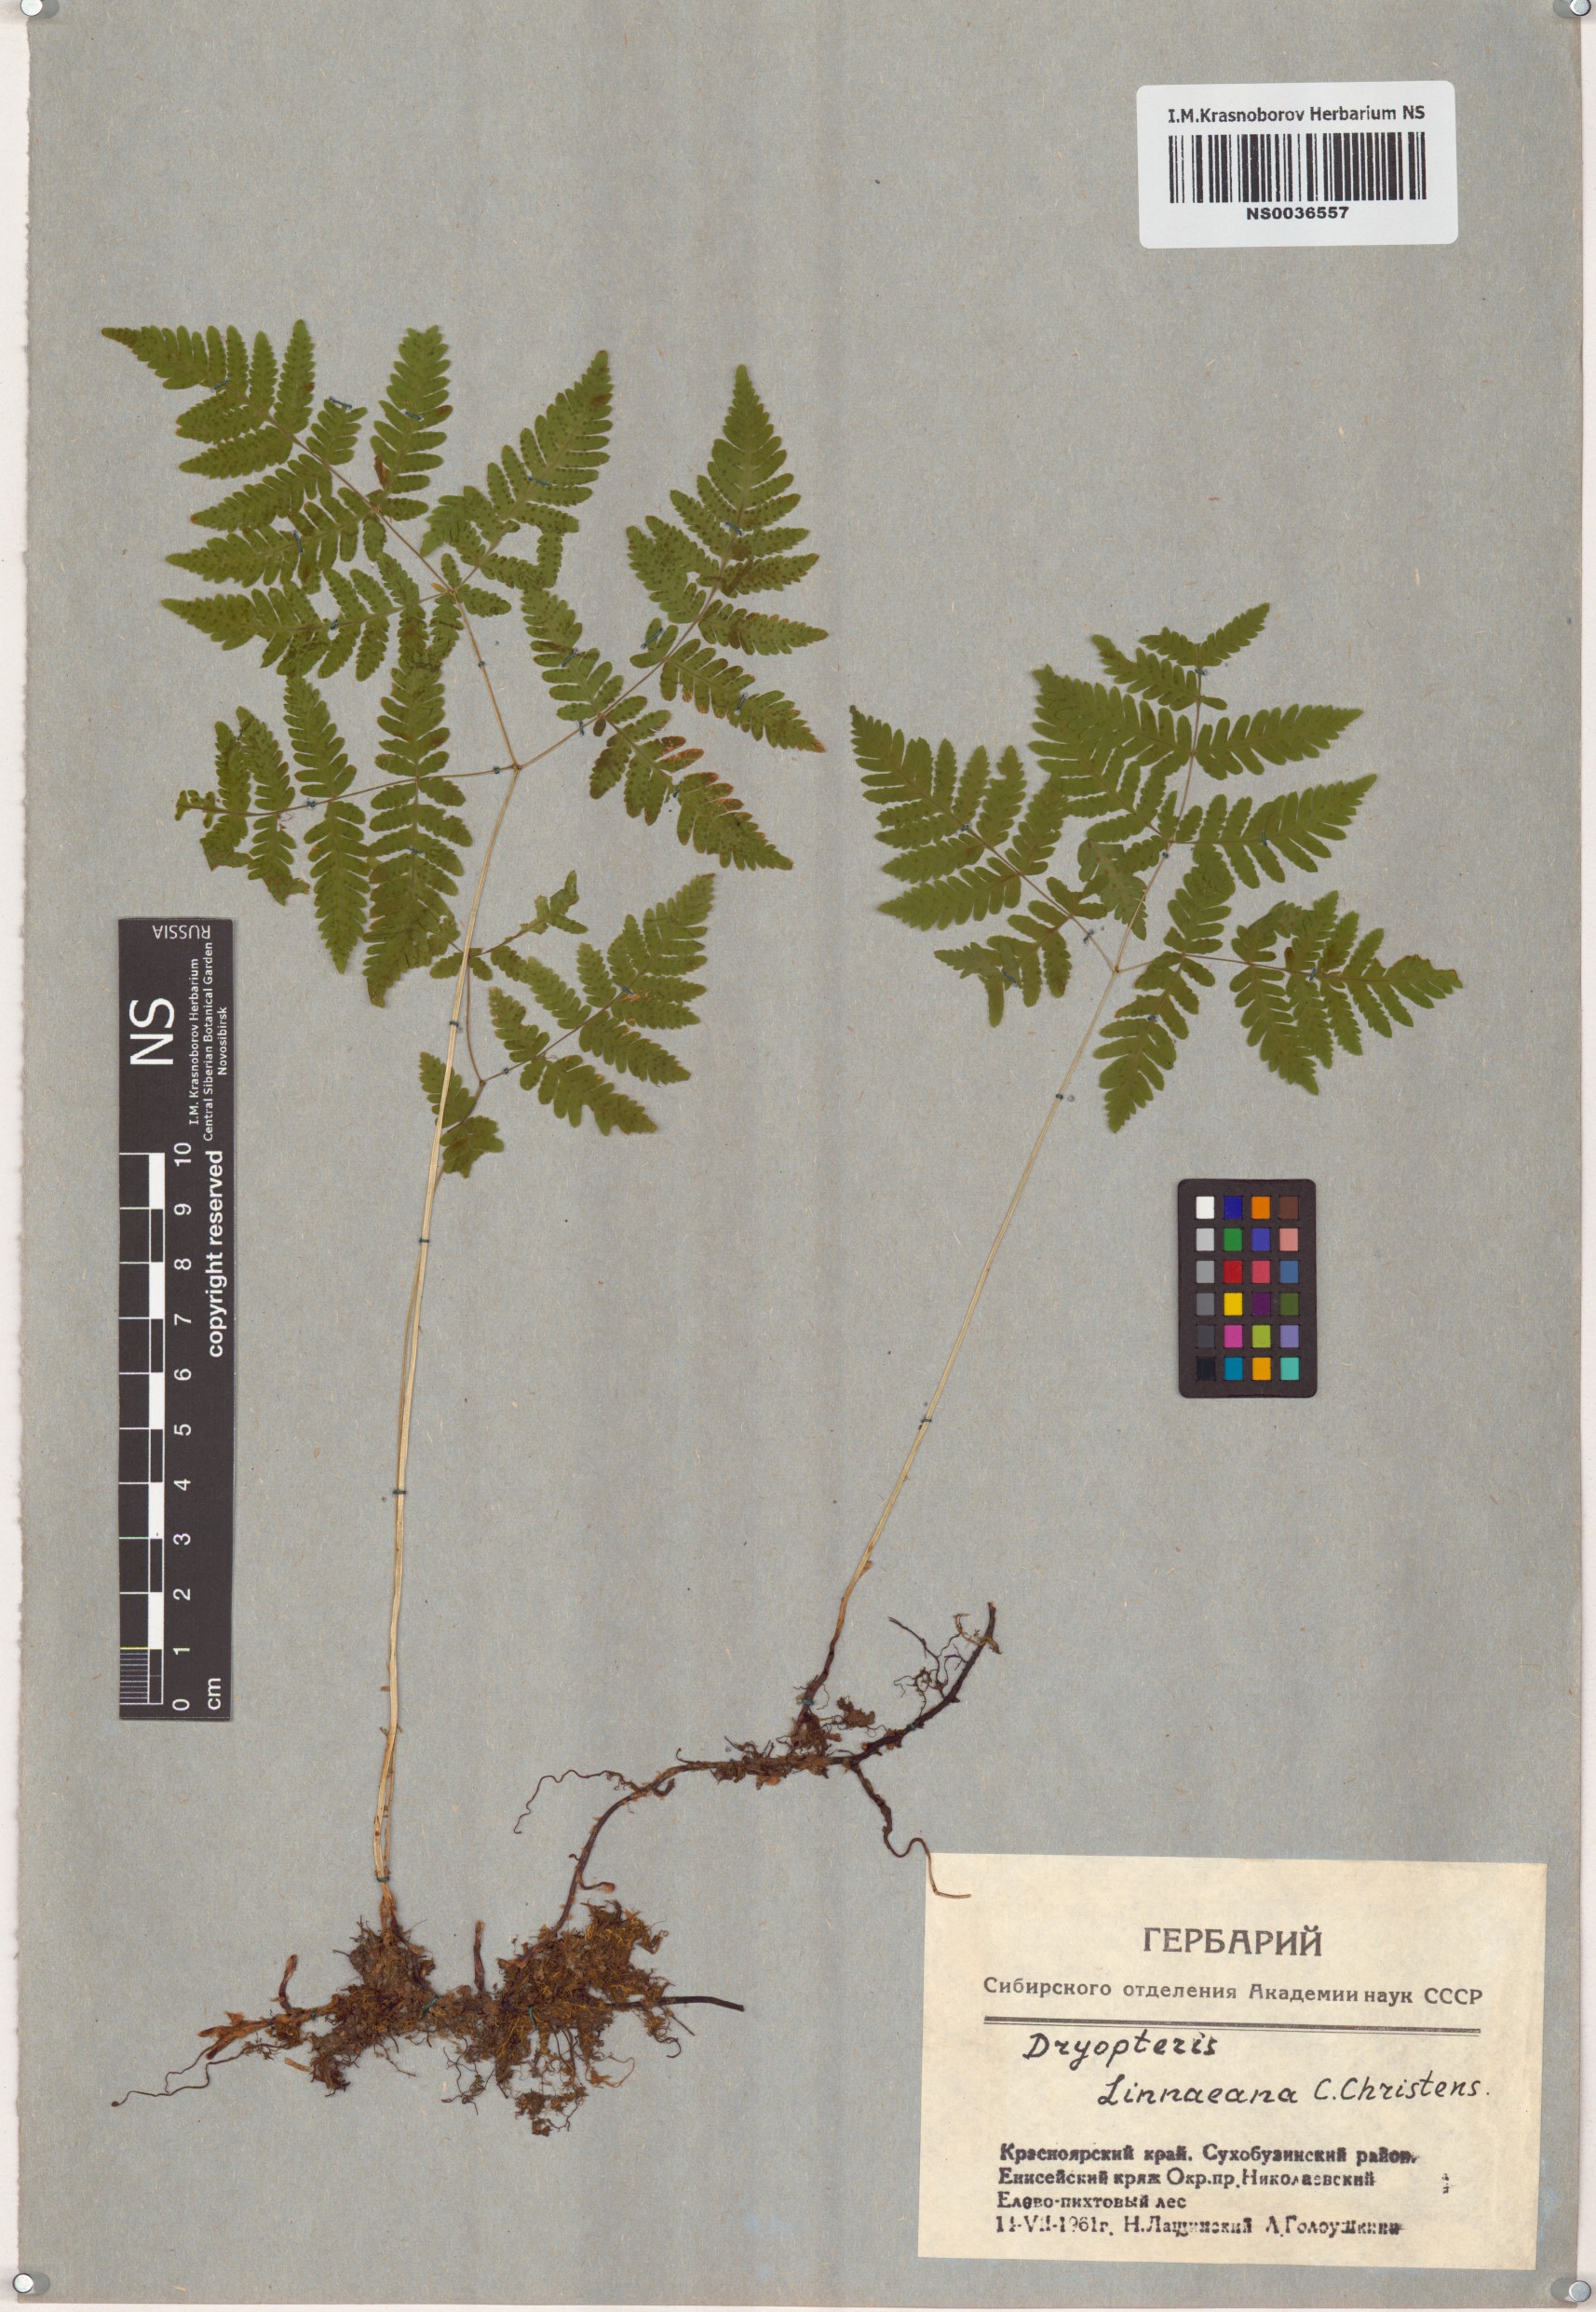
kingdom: Plantae
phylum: Tracheophyta
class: Polypodiopsida
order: Polypodiales
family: Cystopteridaceae
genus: Gymnocarpium
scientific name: Gymnocarpium dryopteris
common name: Oak fern
